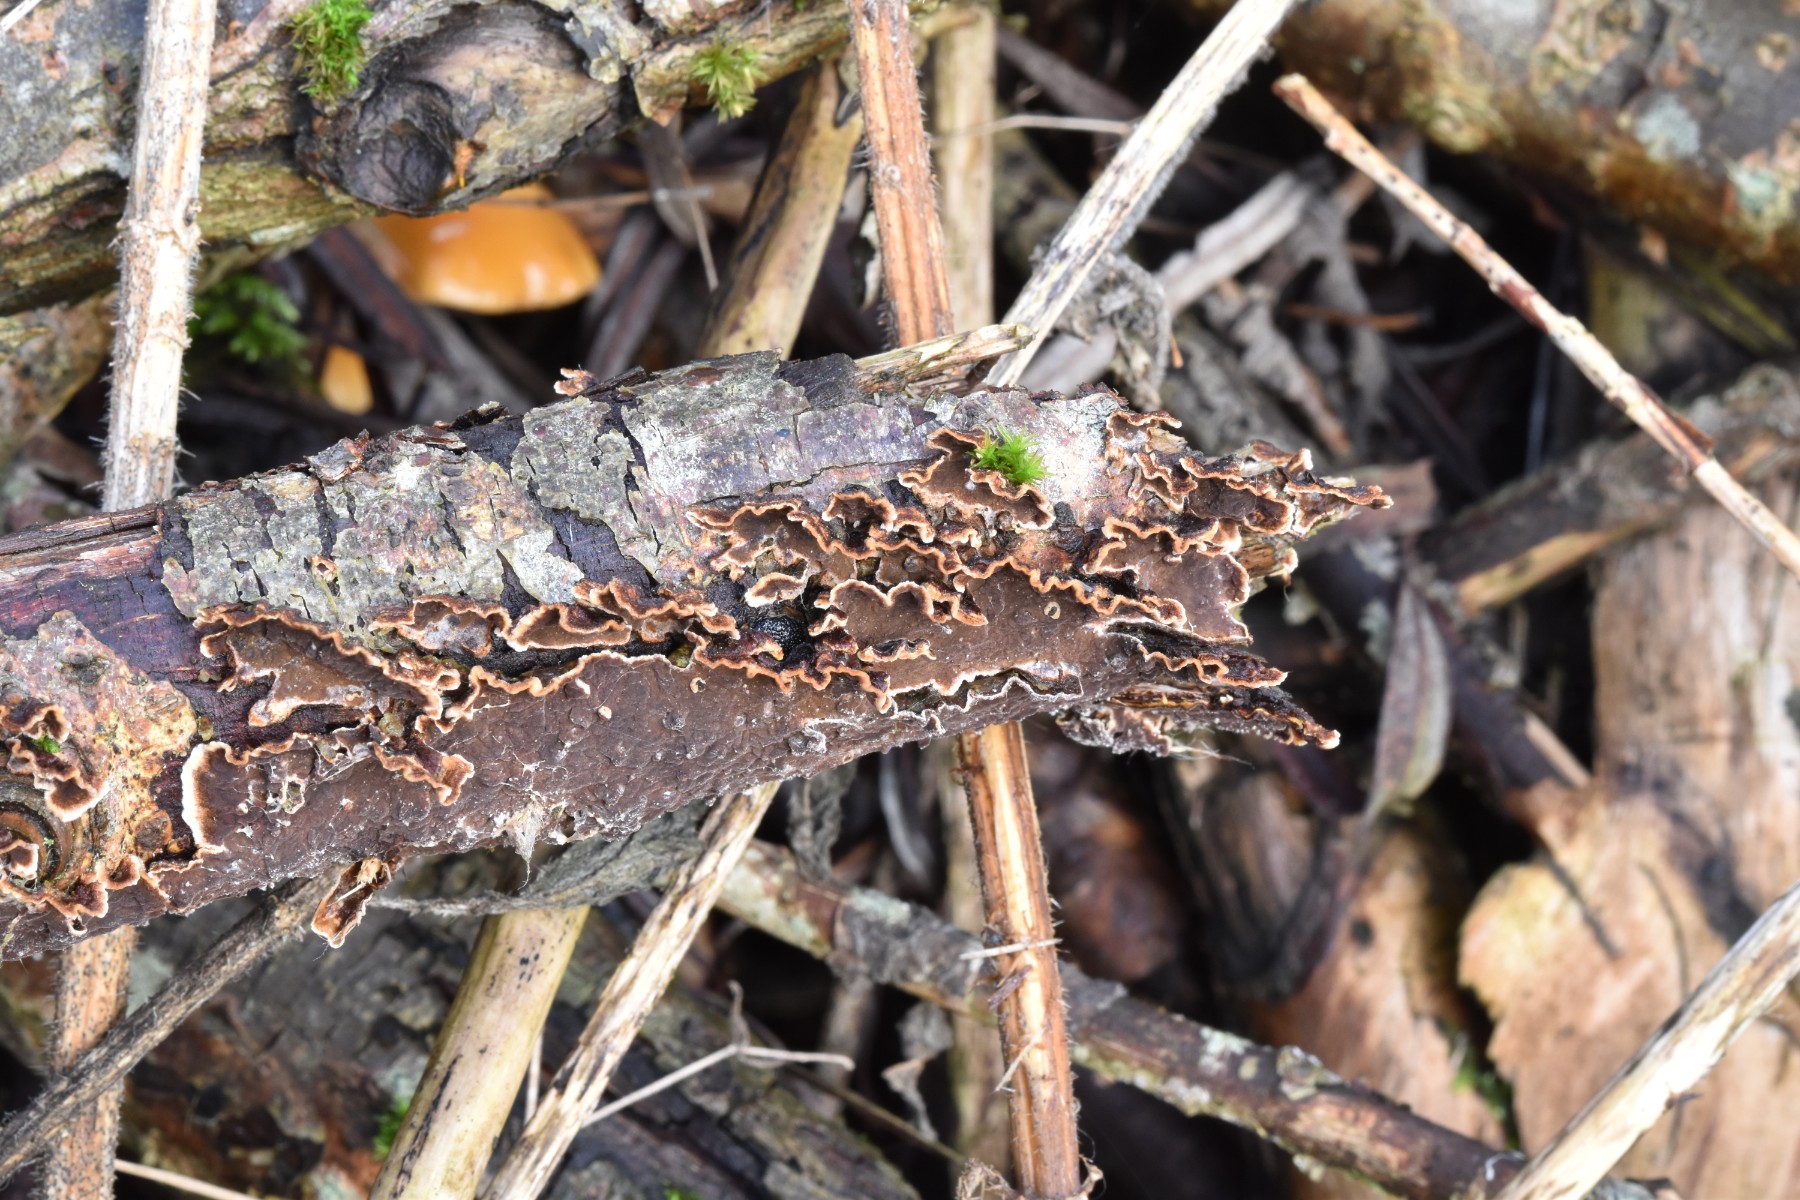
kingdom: Fungi
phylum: Basidiomycota
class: Agaricomycetes
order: Hymenochaetales
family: Hymenochaetaceae
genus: Hydnoporia
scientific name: Hydnoporia tabacina
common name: tobaksbrun ruslædersvamp
